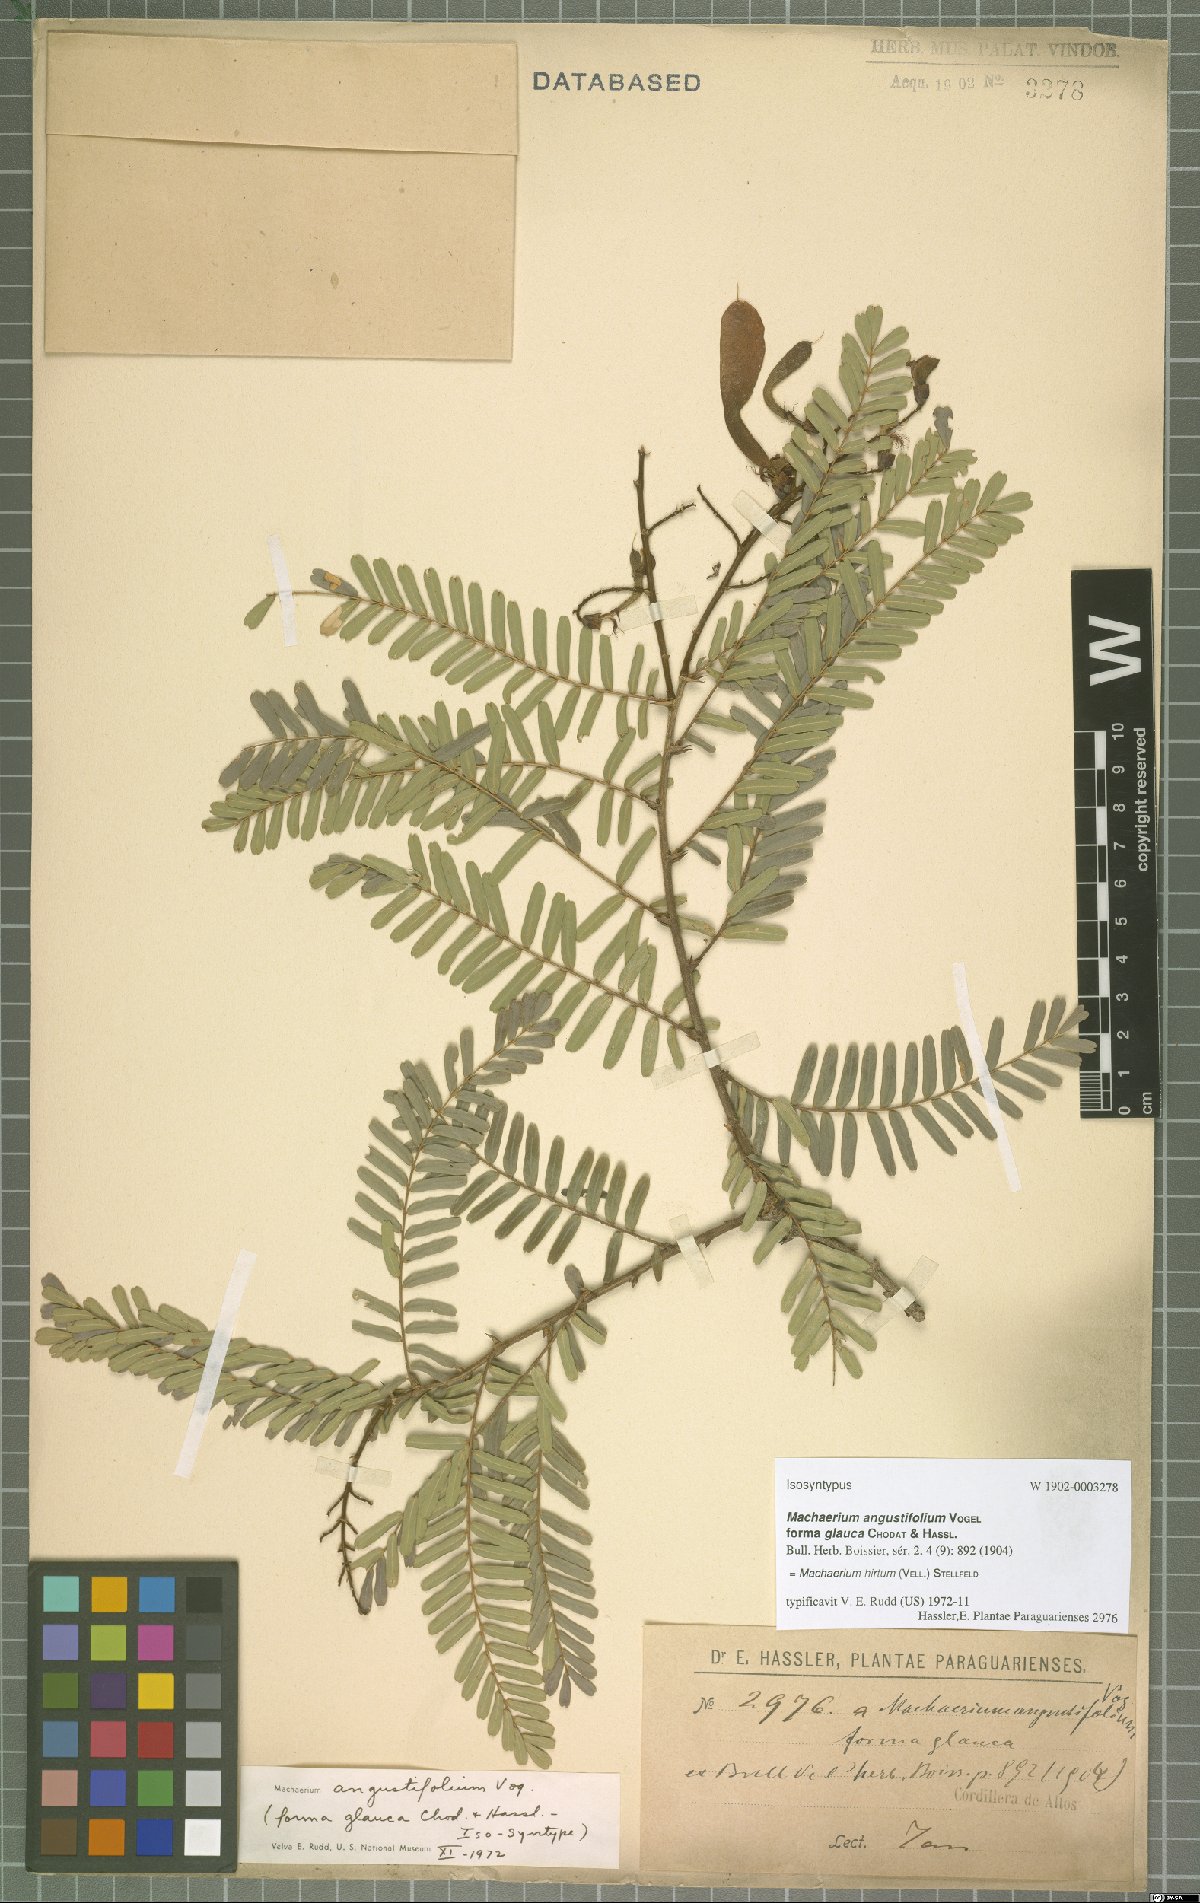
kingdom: Plantae
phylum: Tracheophyta
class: Magnoliopsida
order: Fabales
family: Fabaceae
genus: Machaerium
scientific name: Machaerium hirtum
